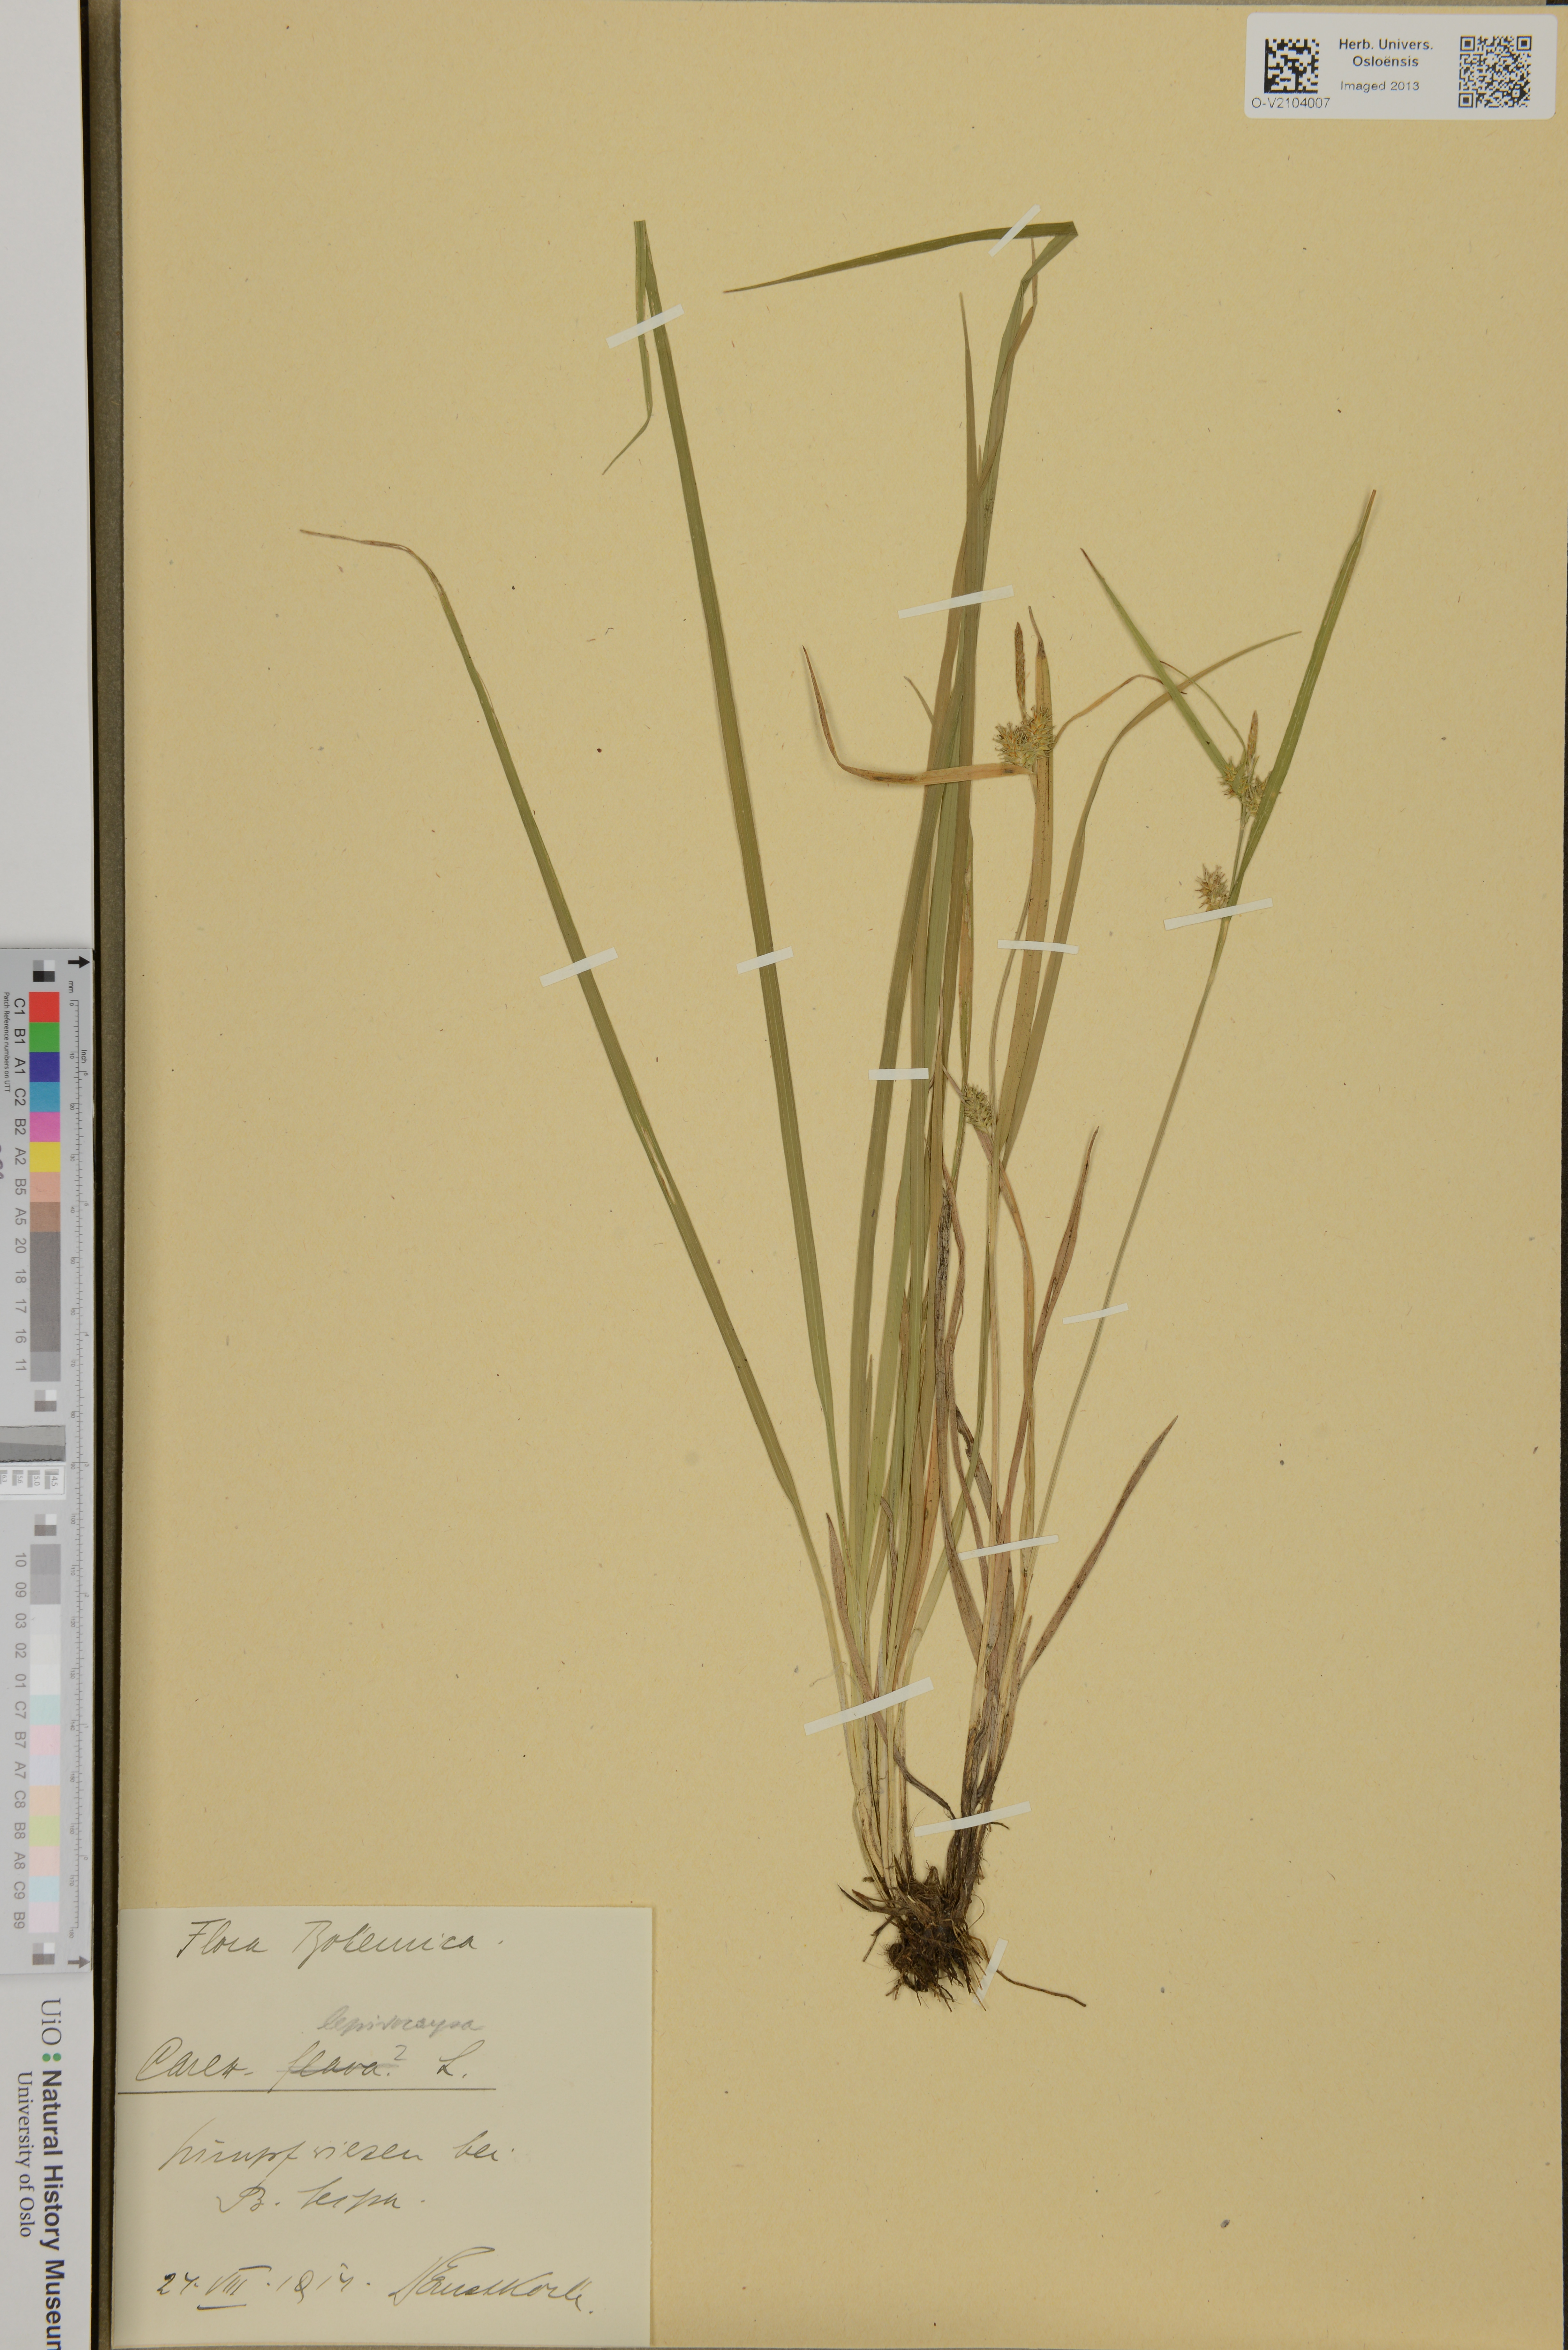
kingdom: Plantae
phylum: Tracheophyta
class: Liliopsida
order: Poales
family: Cyperaceae
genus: Carex
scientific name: Carex lepidocarpa
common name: Long-stalked yellow-sedge
